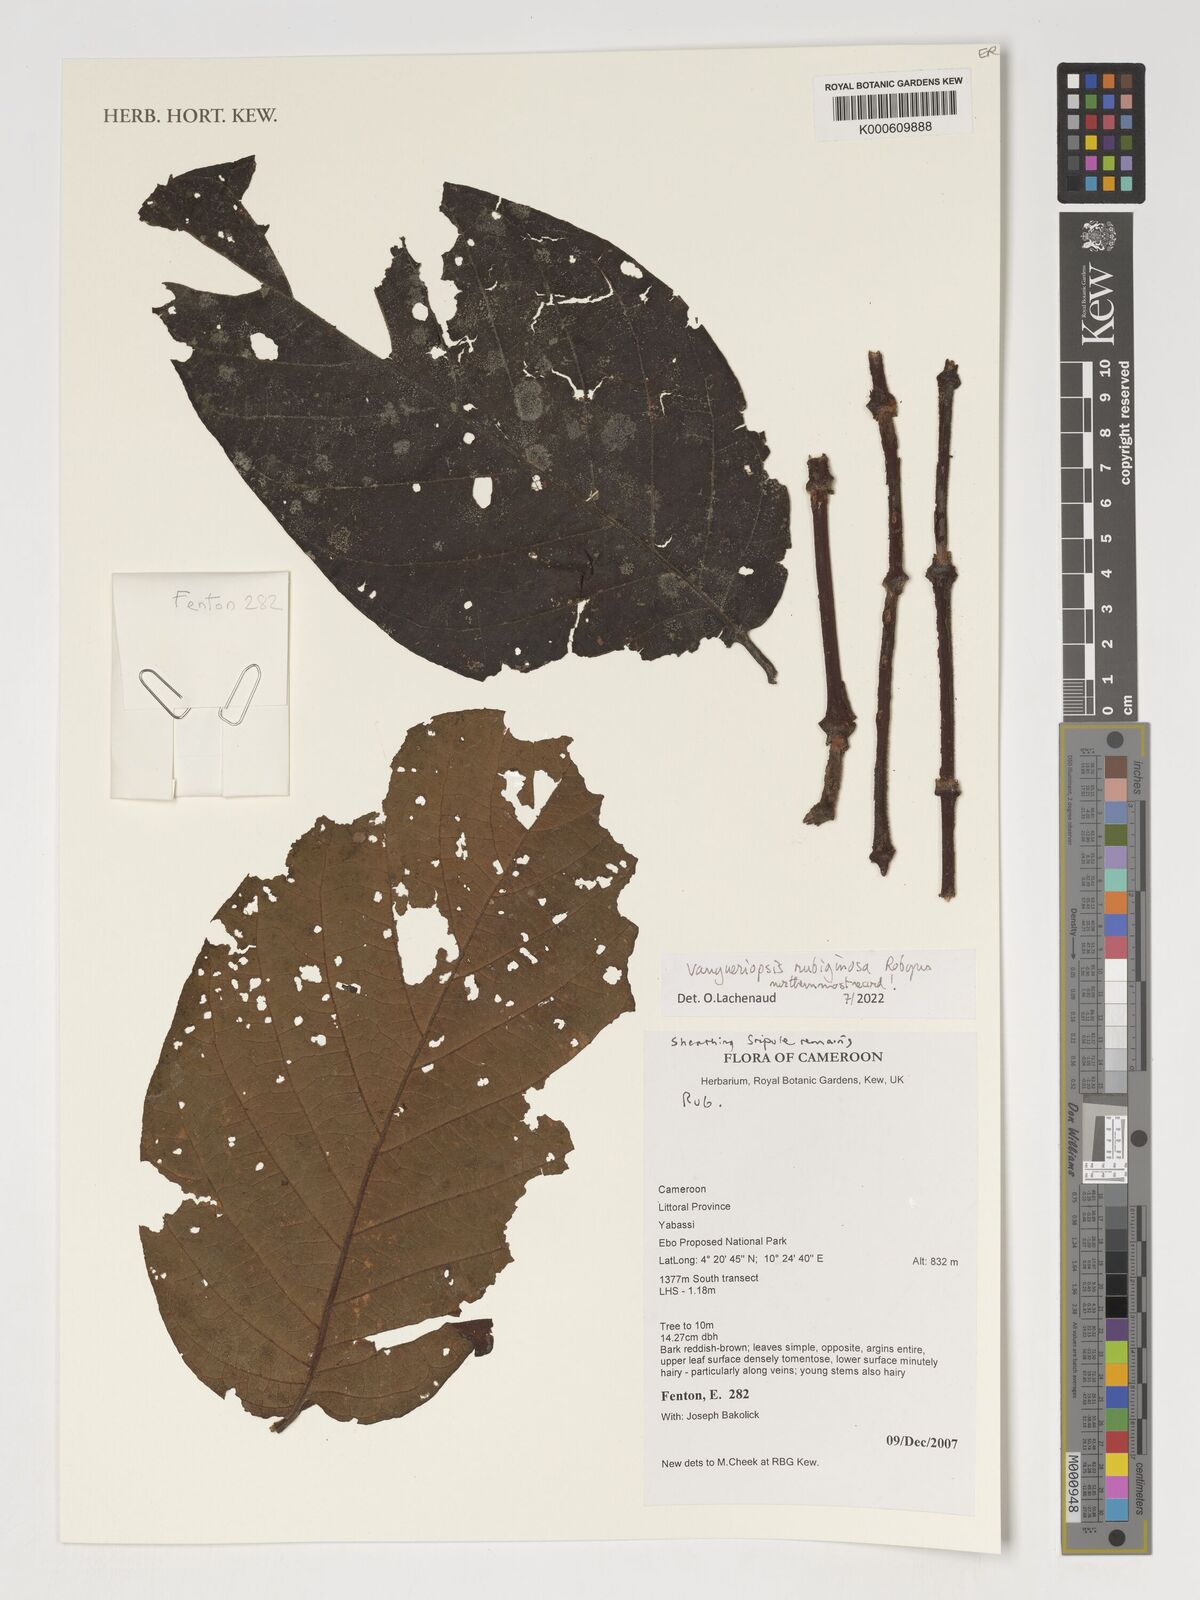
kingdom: Plantae
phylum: Tracheophyta
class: Magnoliopsida
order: Gentianales
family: Rubiaceae
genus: Vangueriopsis
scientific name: Vangueriopsis rubiginosa
